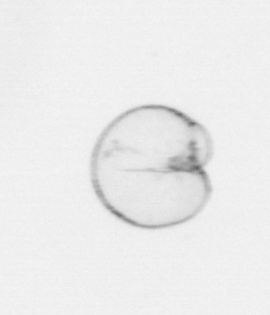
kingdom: Chromista
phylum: Myzozoa
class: Dinophyceae
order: Noctilucales
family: Noctilucaceae
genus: Noctiluca
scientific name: Noctiluca scintillans
